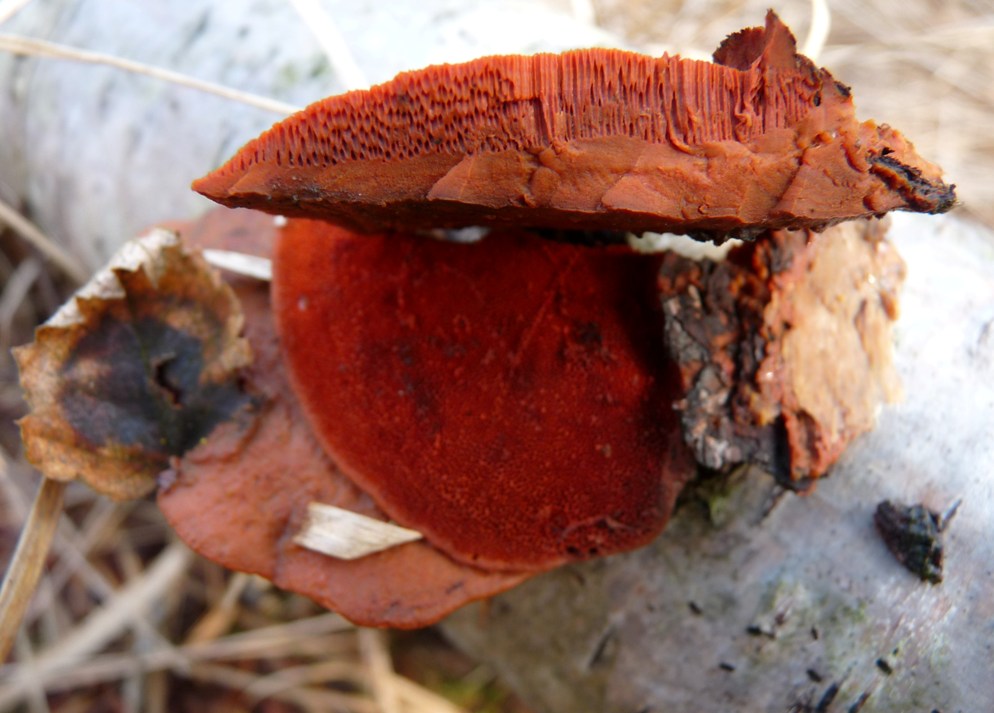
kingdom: Fungi
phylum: Basidiomycota
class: Agaricomycetes
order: Polyporales
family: Polyporaceae
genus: Trametes
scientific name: Trametes cinnabarina
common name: cinnoberporesvamp
